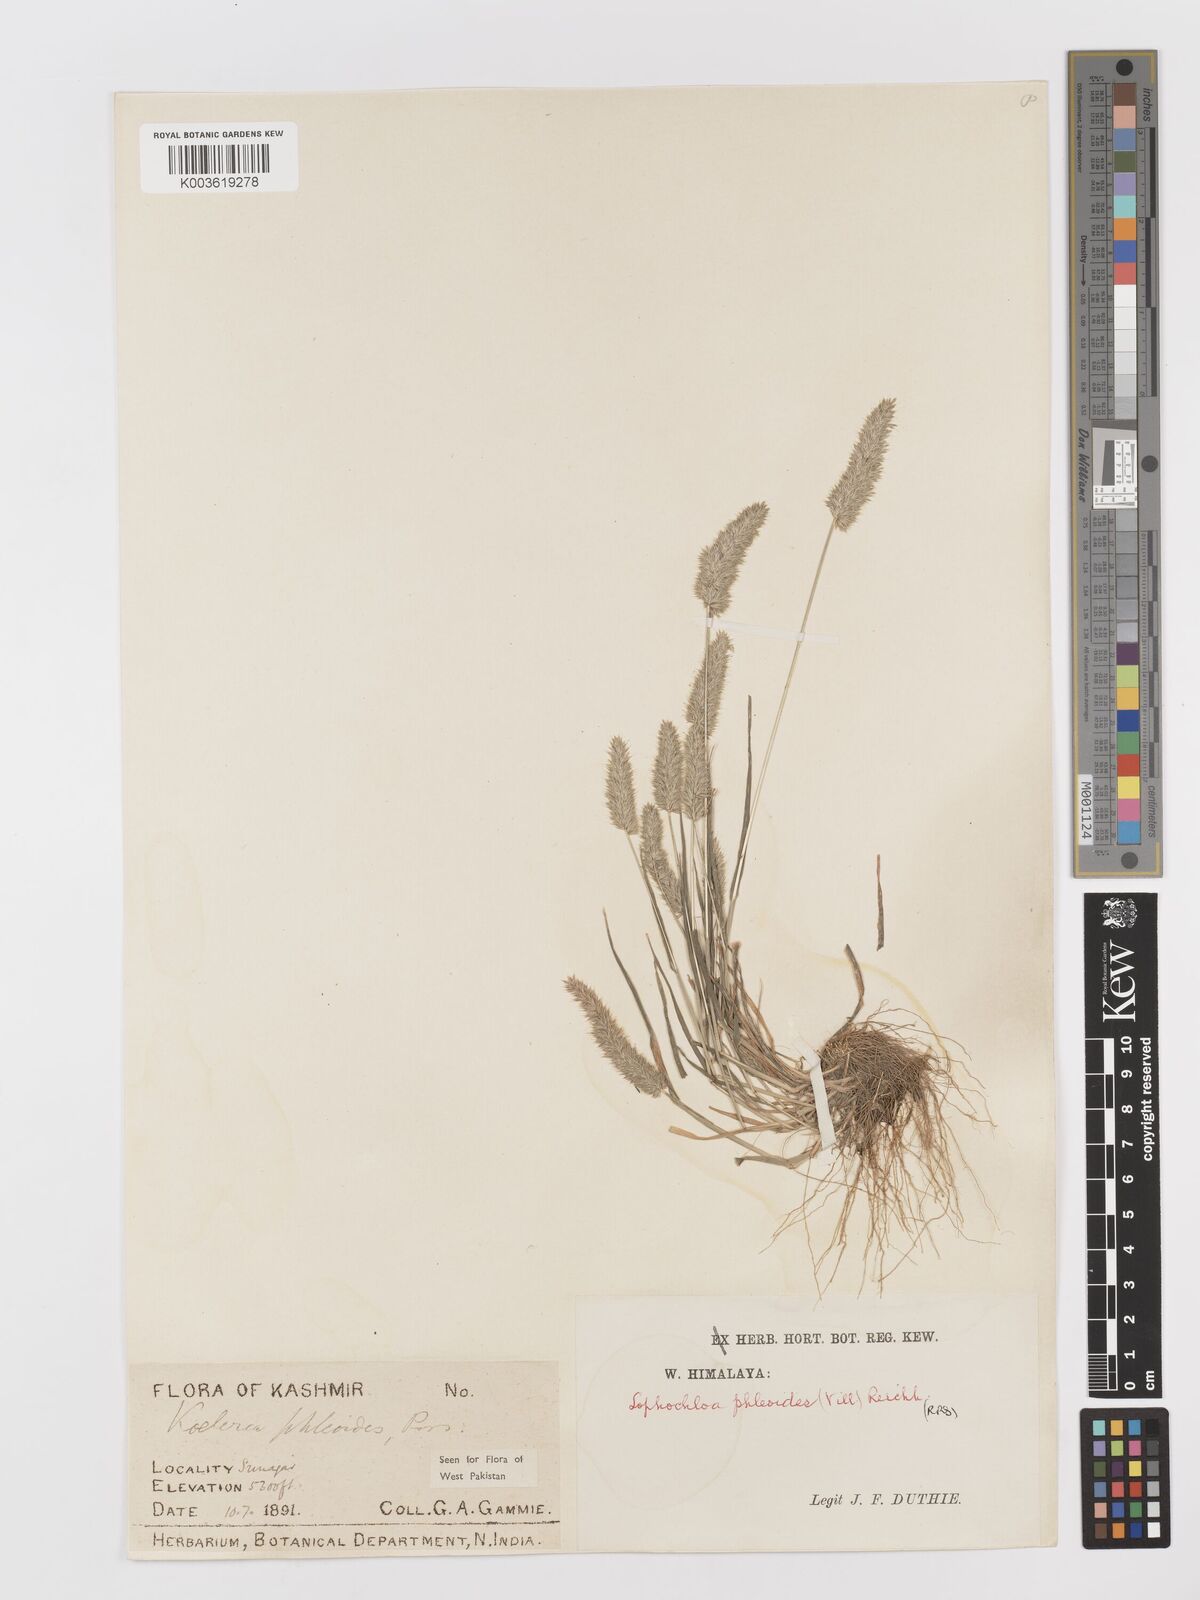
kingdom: Plantae
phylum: Tracheophyta
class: Liliopsida
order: Poales
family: Poaceae
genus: Rostraria
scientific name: Rostraria cristata
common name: Mediterranean hair-grass
